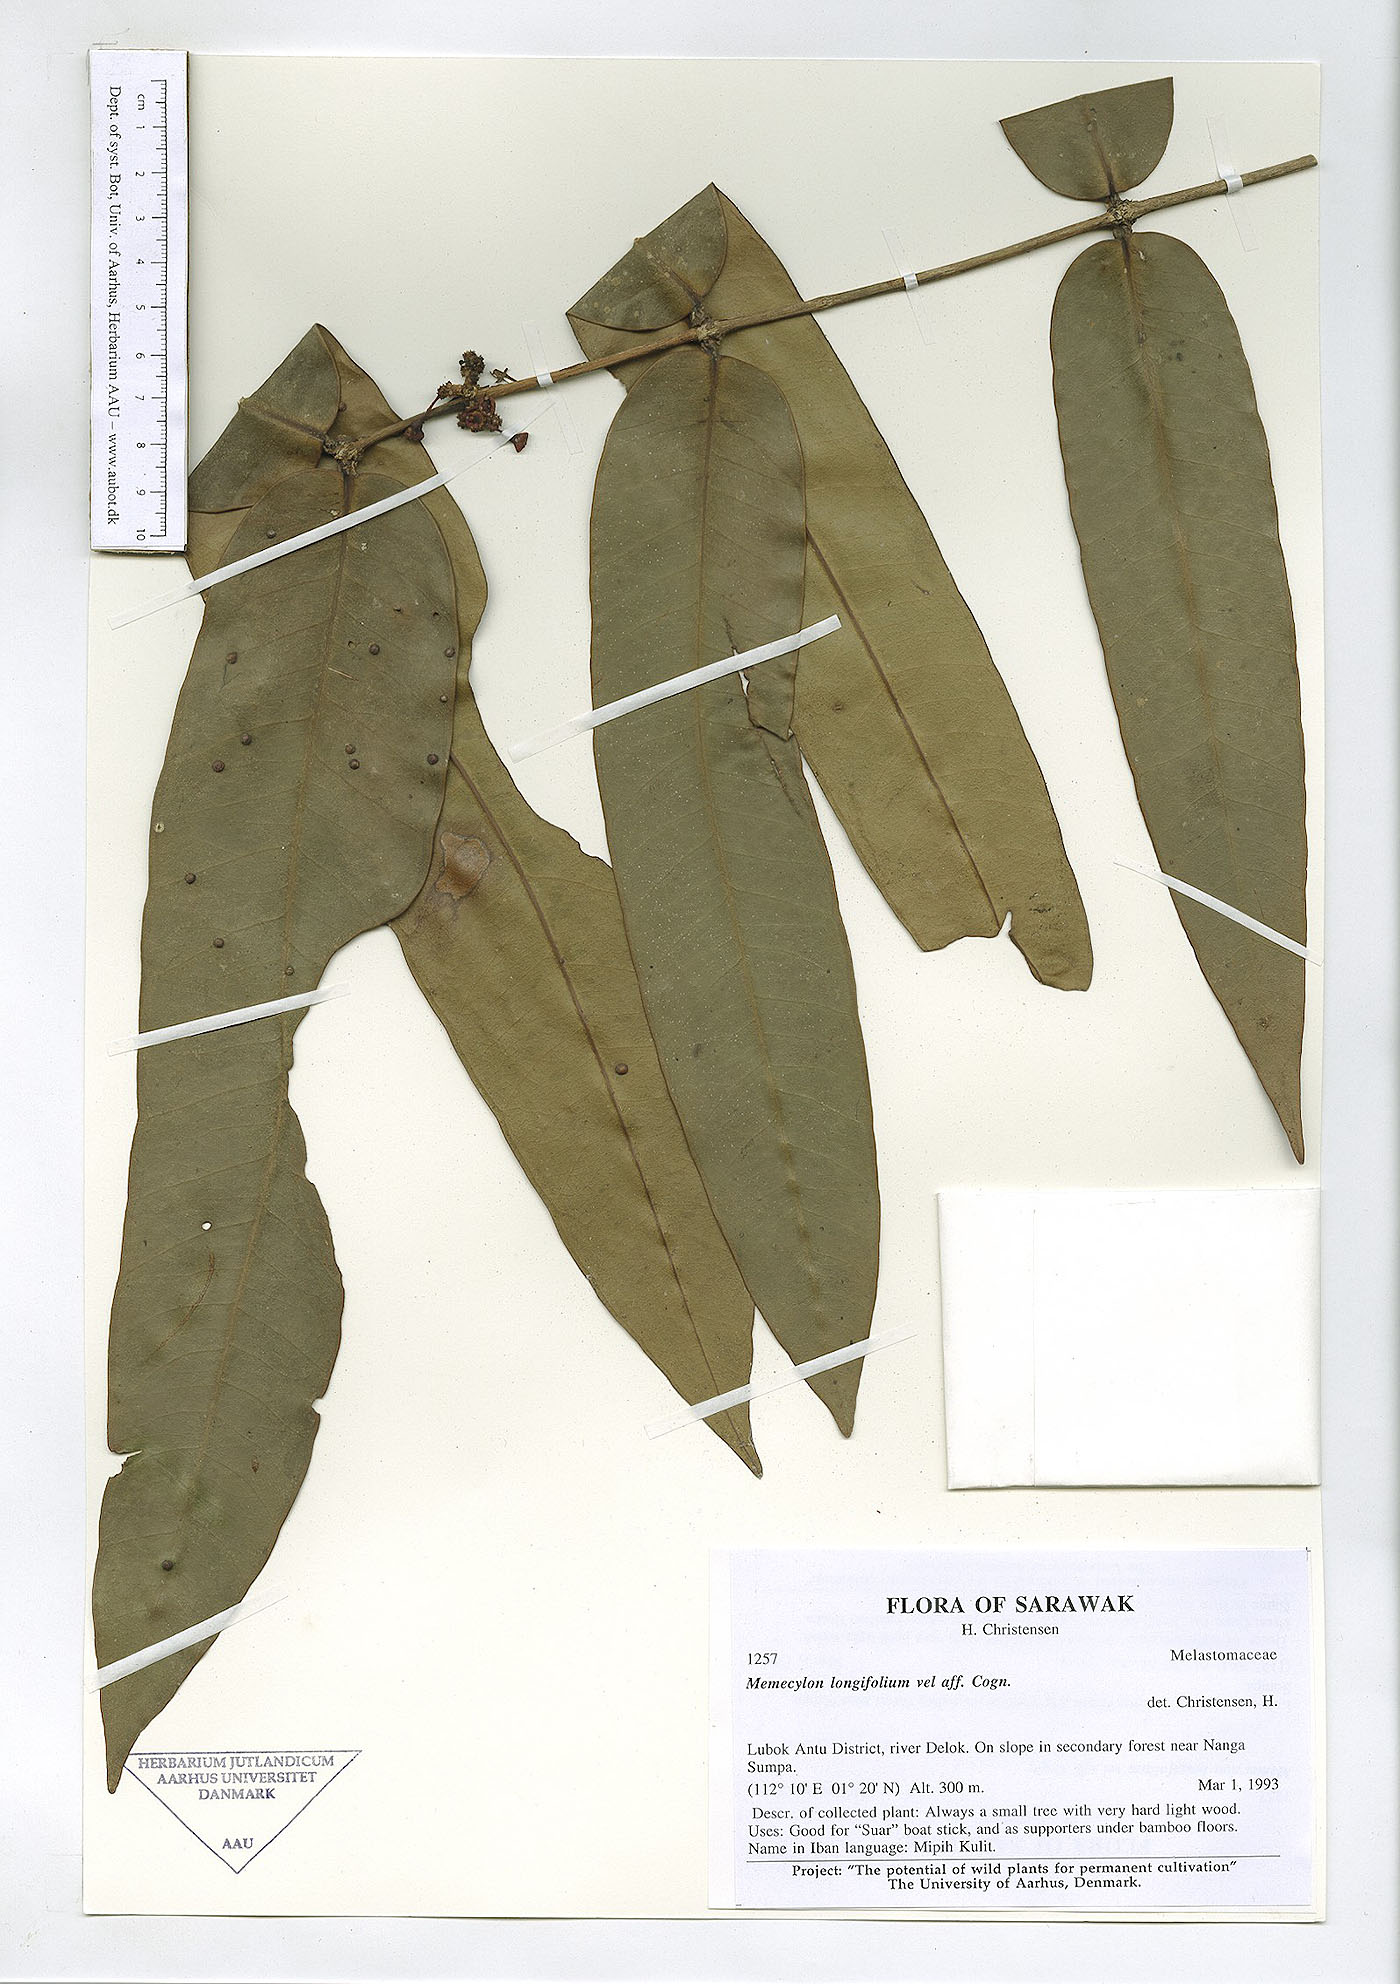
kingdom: Plantae
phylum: Tracheophyta
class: Magnoliopsida
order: Myrtales
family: Melastomataceae
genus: Memecylon
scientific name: Memecylon longifolium
